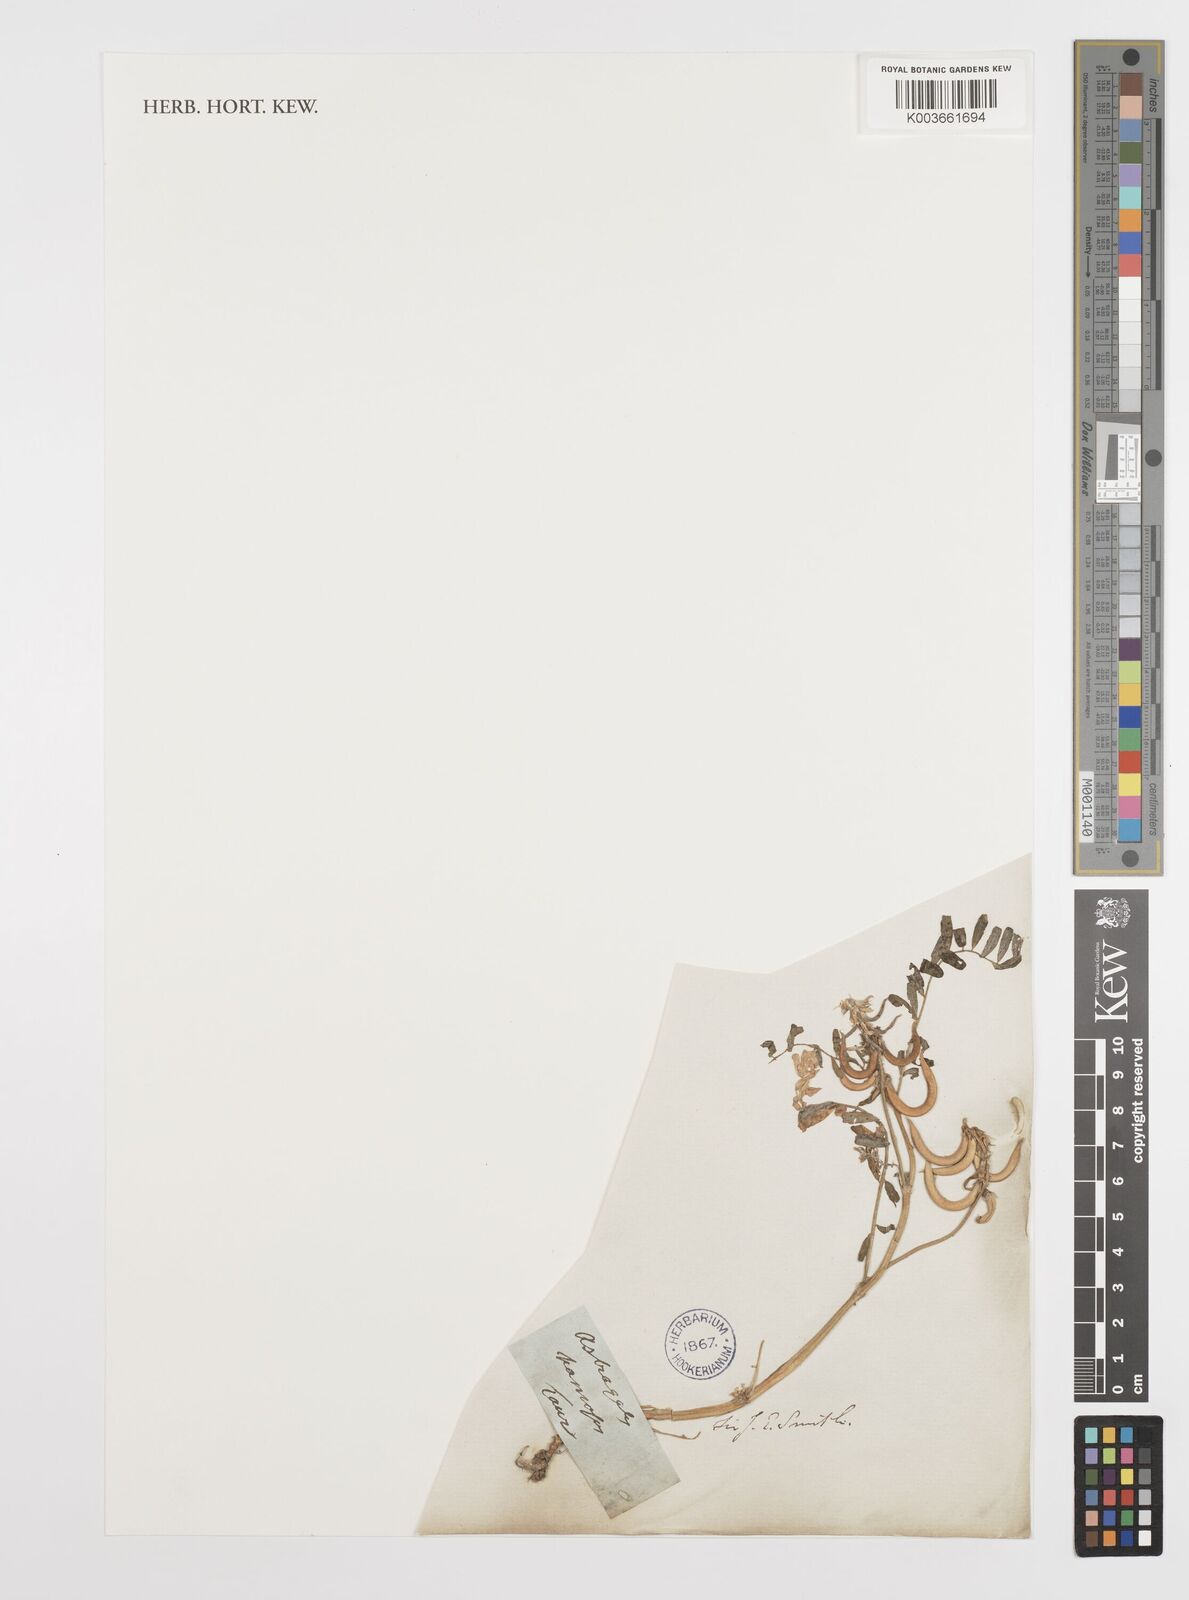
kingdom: Plantae
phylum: Tracheophyta
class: Magnoliopsida
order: Fabales
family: Fabaceae
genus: Astragalus
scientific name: Astragalus hamosus
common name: European milkvetch
